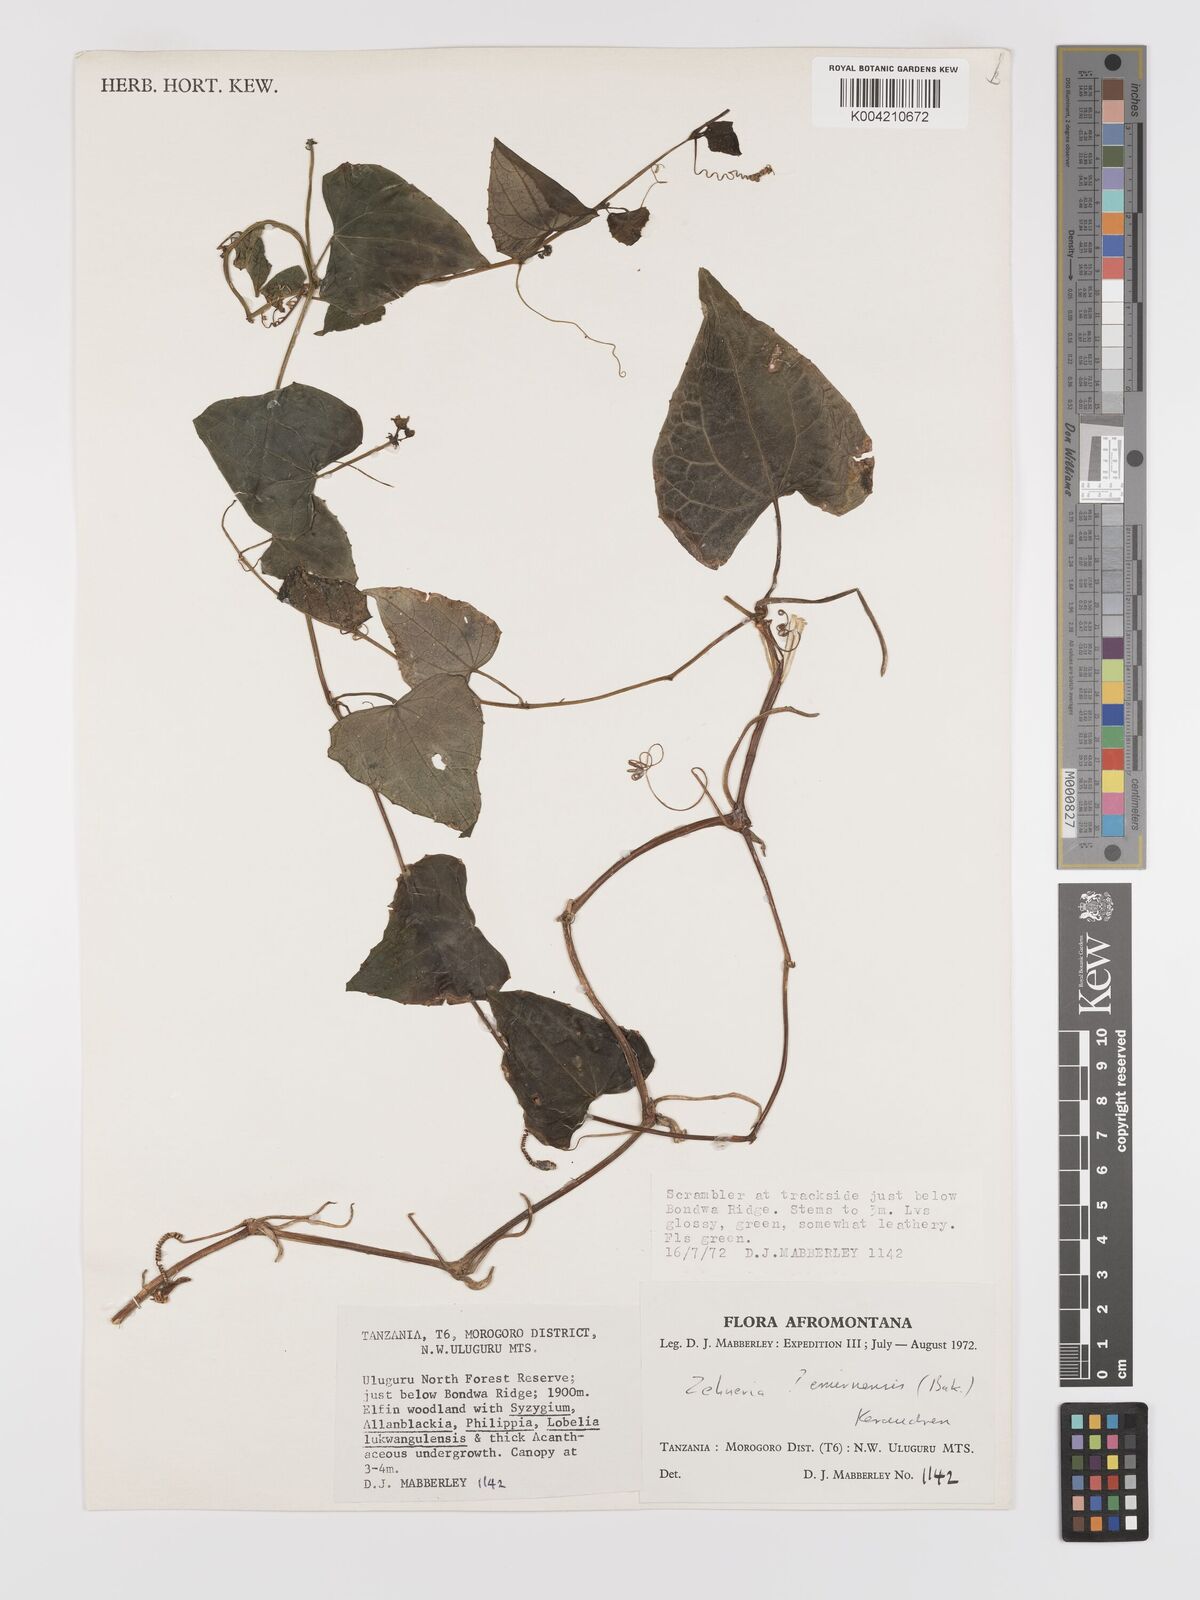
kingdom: Plantae
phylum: Tracheophyta
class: Magnoliopsida
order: Cucurbitales
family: Cucurbitaceae
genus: Zehneria
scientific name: Zehneria scabra
